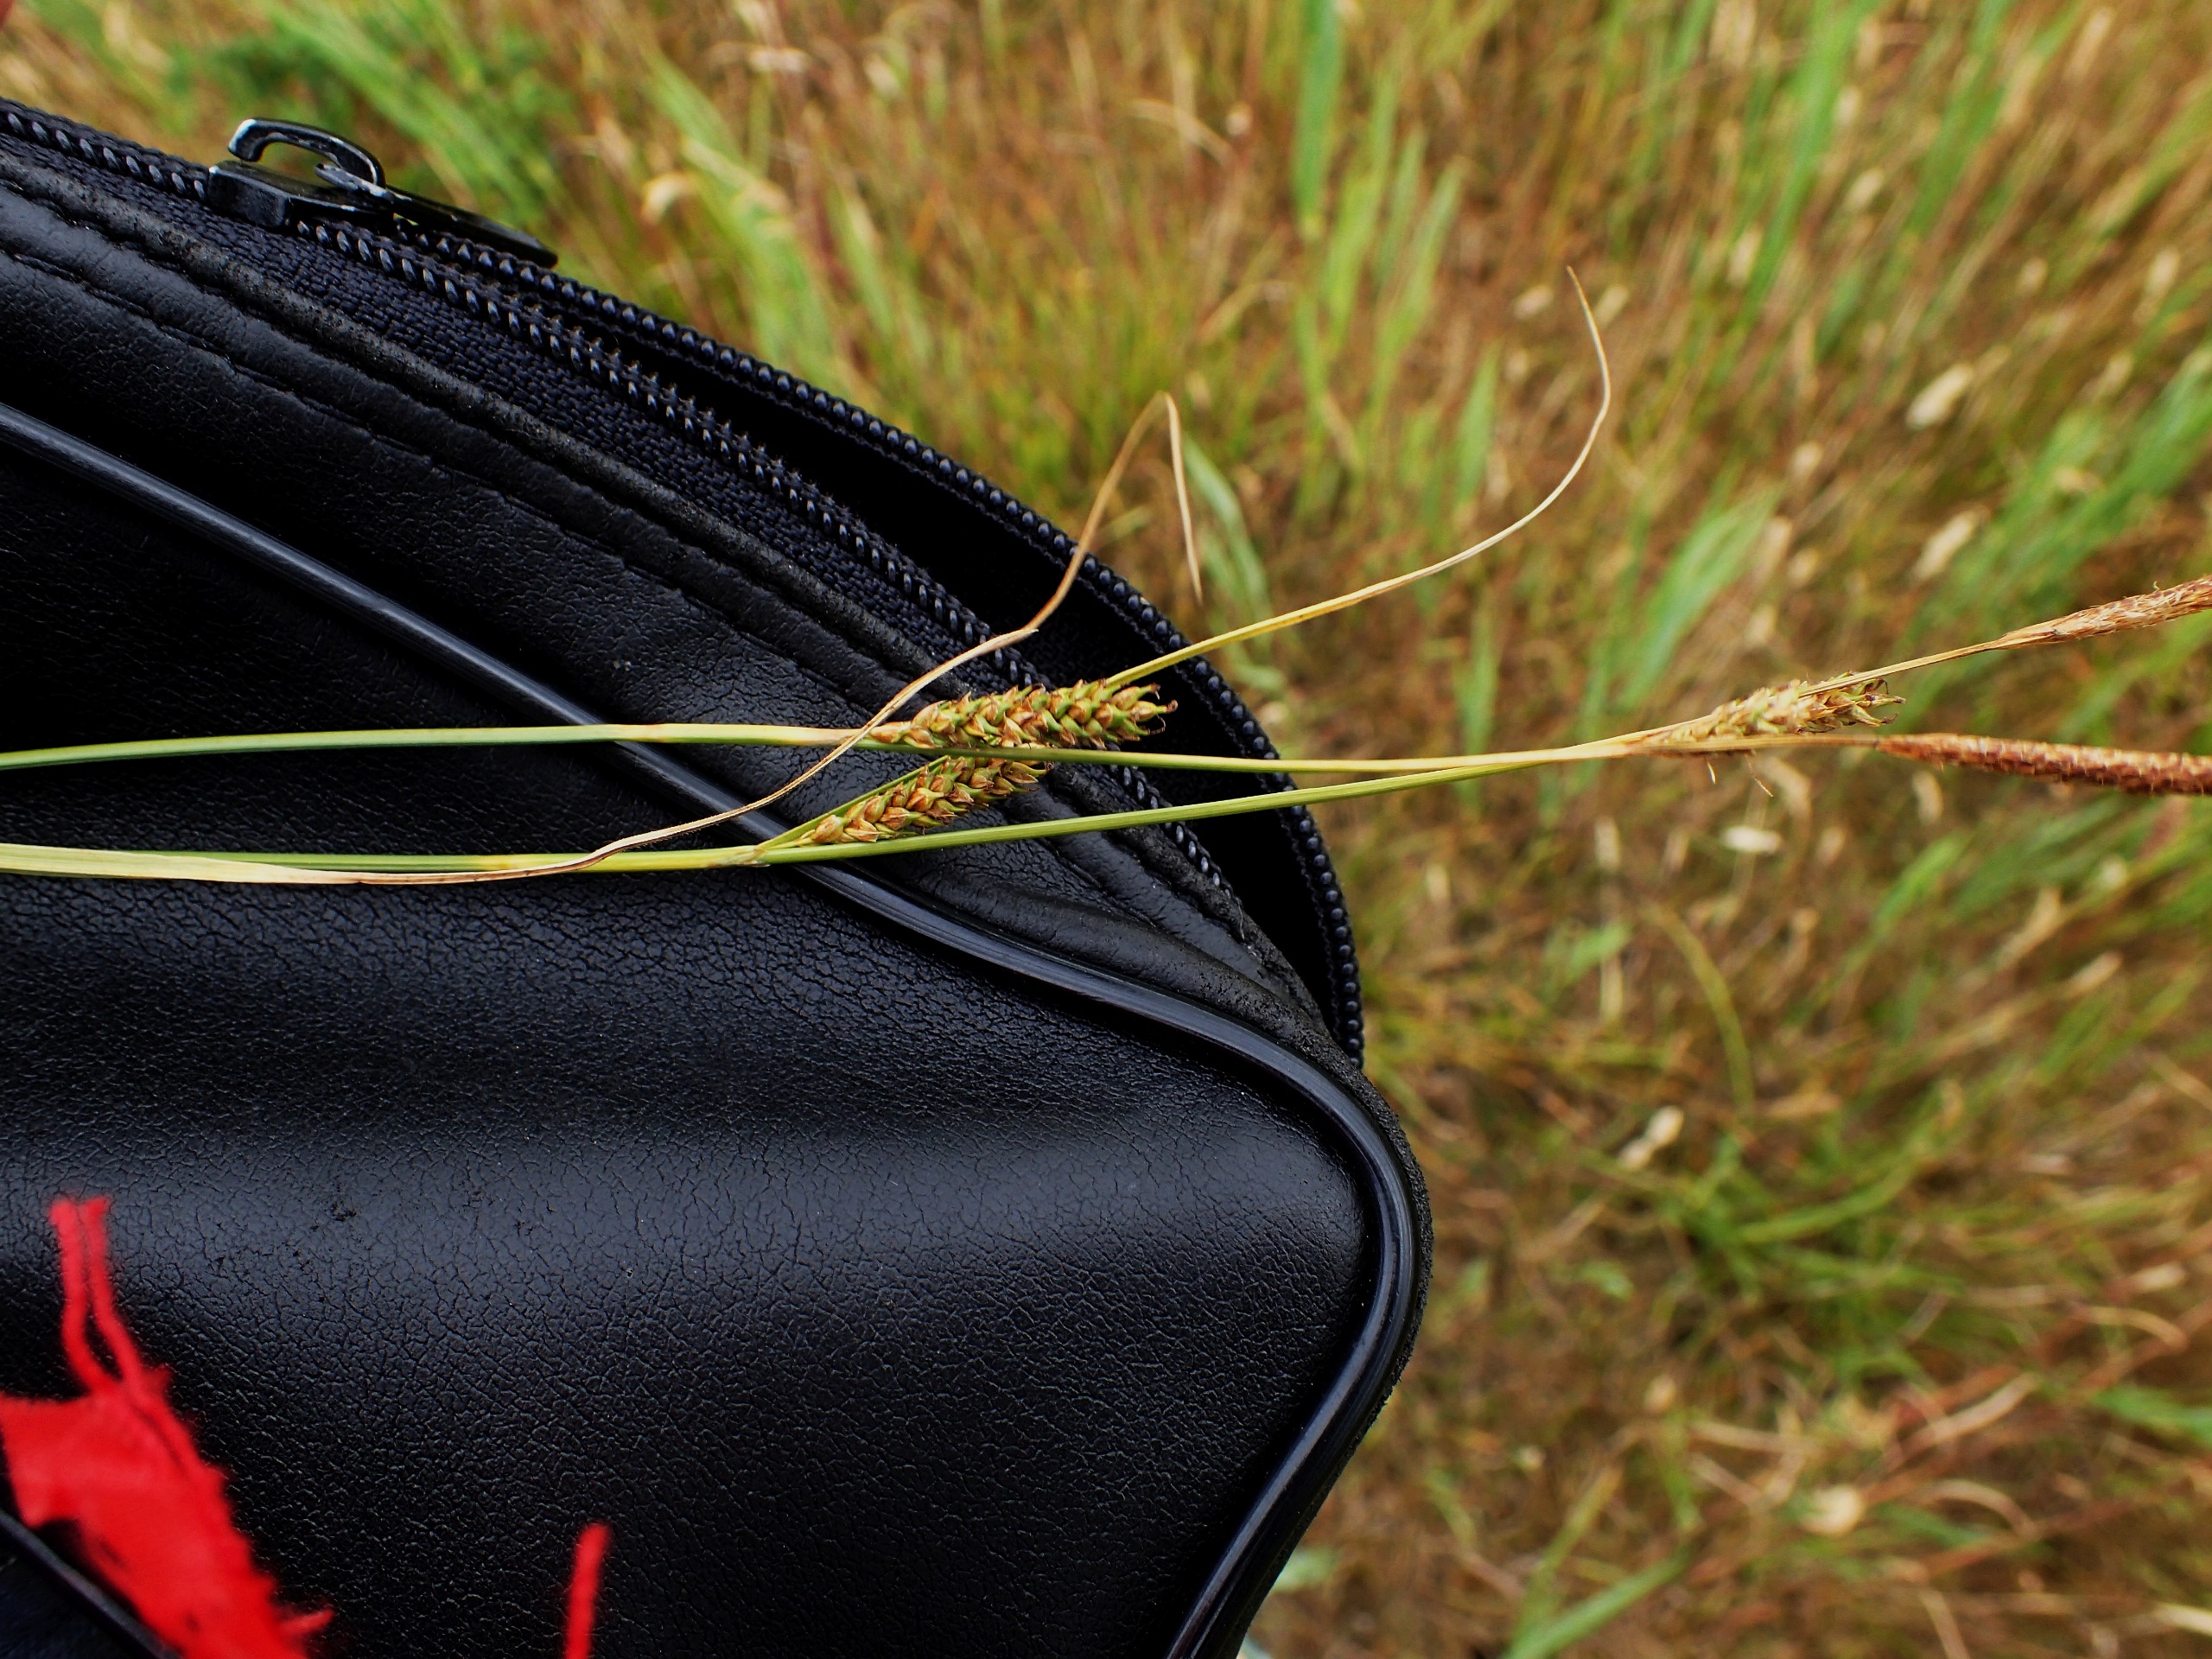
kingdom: Plantae
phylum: Tracheophyta
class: Liliopsida
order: Poales
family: Cyperaceae
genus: Carex
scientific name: Carex distans
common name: Fjernakset star
